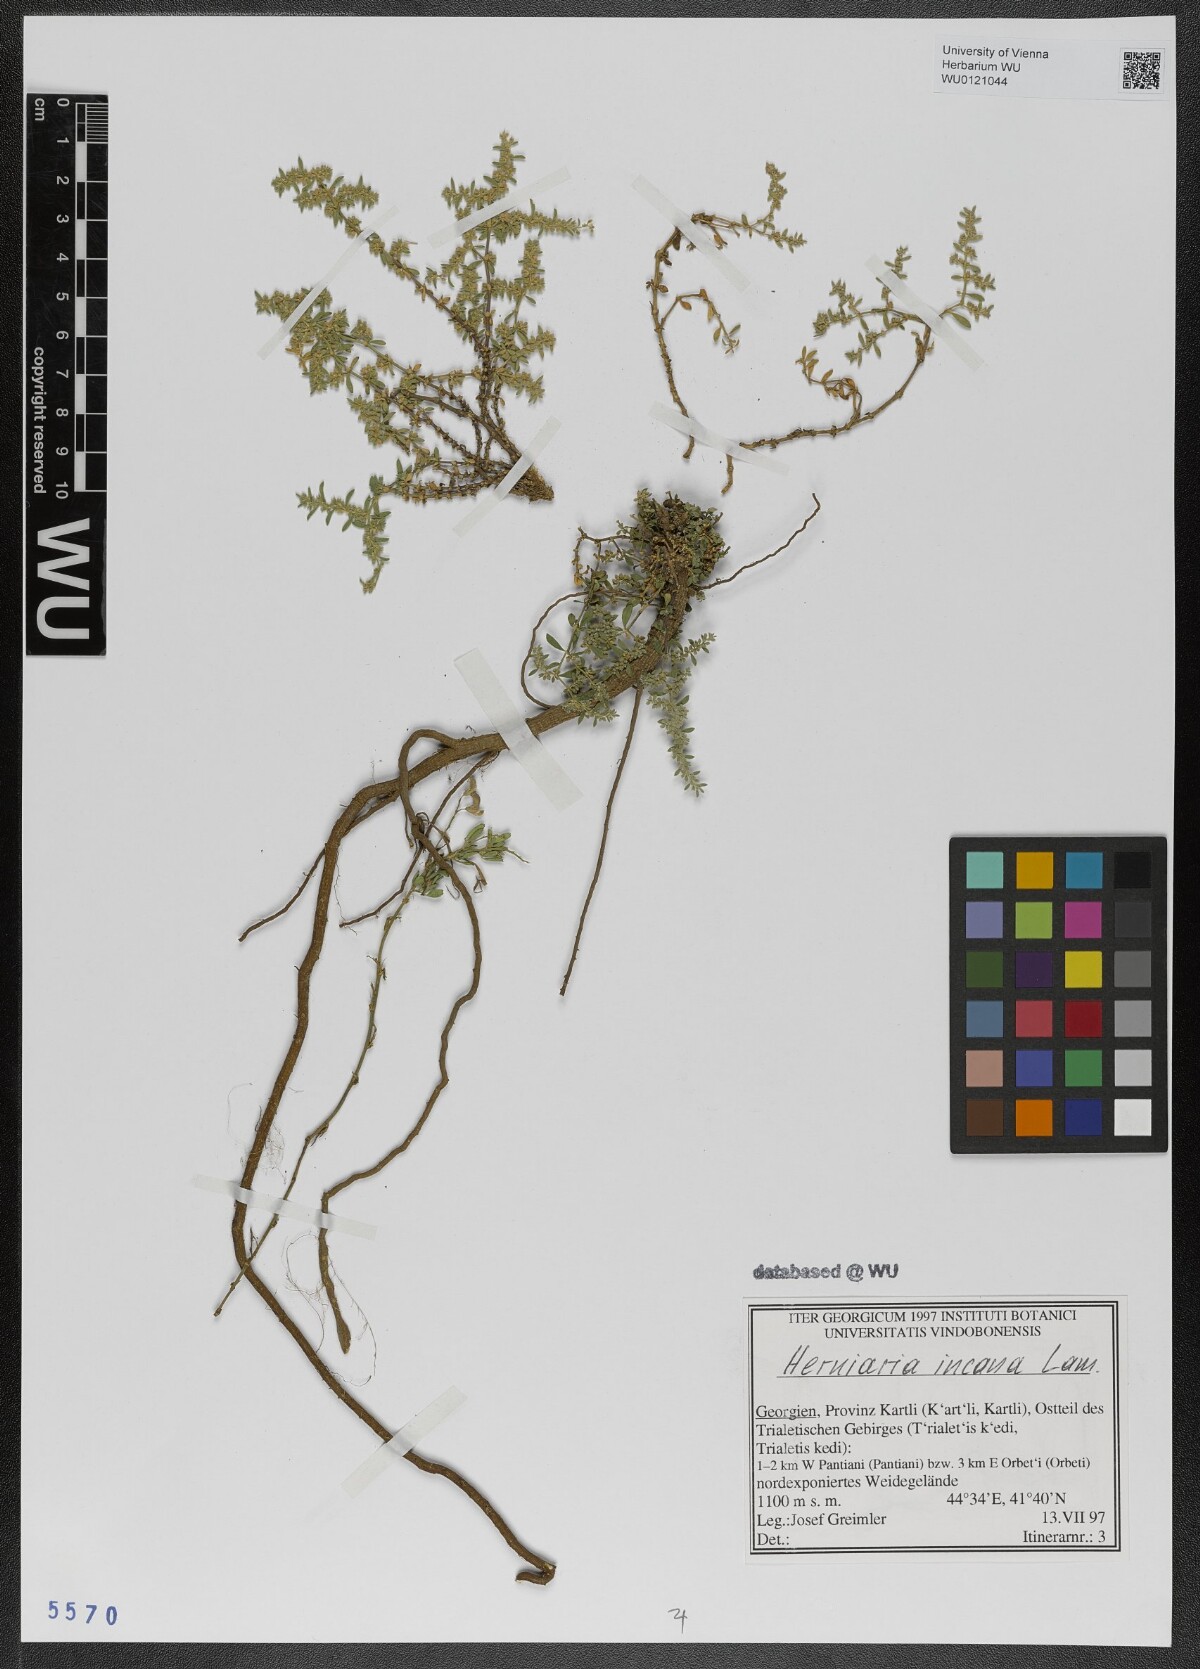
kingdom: Plantae
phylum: Tracheophyta
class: Magnoliopsida
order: Caryophyllales
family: Caryophyllaceae
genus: Herniaria
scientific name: Herniaria incana
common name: Gray rupturewort
